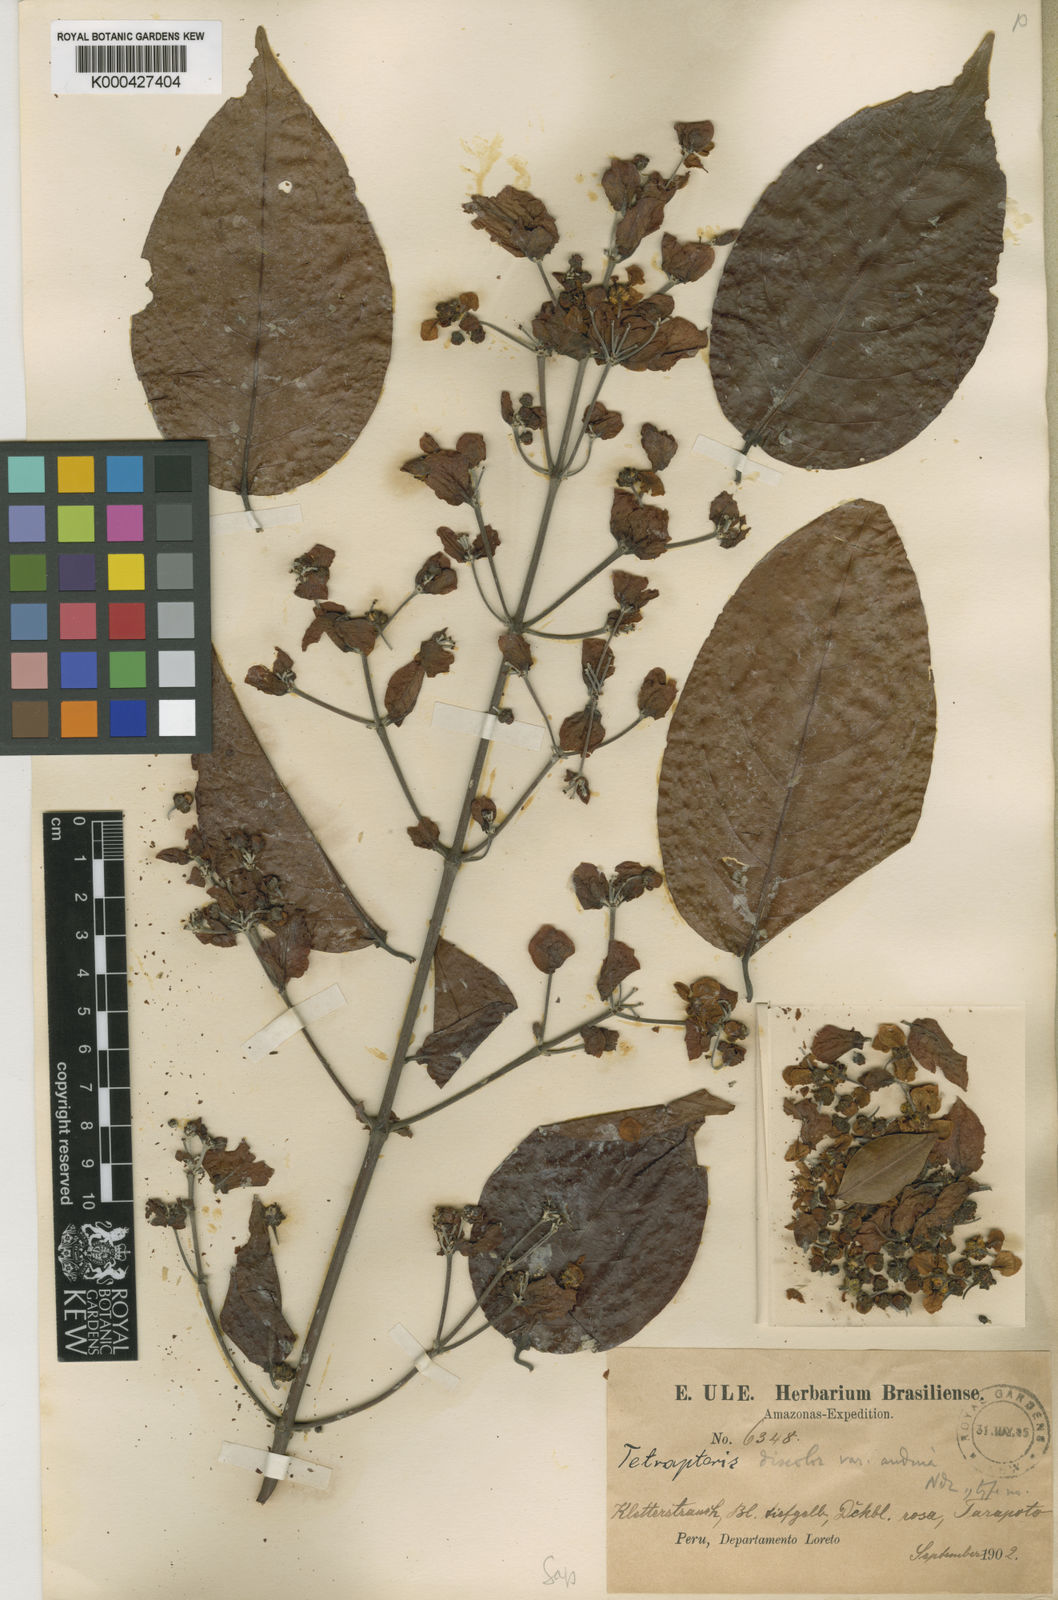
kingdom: Plantae
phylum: Tracheophyta
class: Magnoliopsida
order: Malpighiales
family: Malpighiaceae
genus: Tetrapterys
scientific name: Tetrapterys discolor
